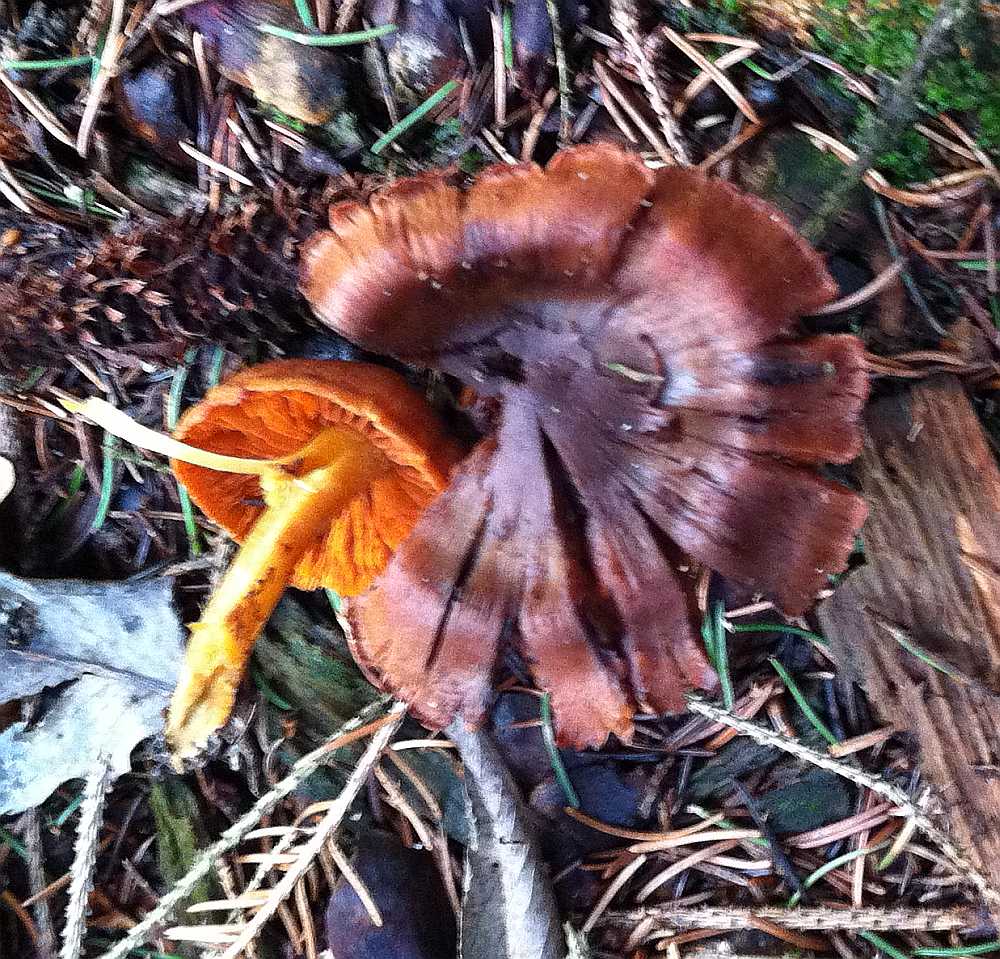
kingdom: Fungi
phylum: Basidiomycota
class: Agaricomycetes
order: Agaricales
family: Cortinariaceae
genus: Cortinarius
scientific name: Cortinarius malicorius
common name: grønkødet slørhat
